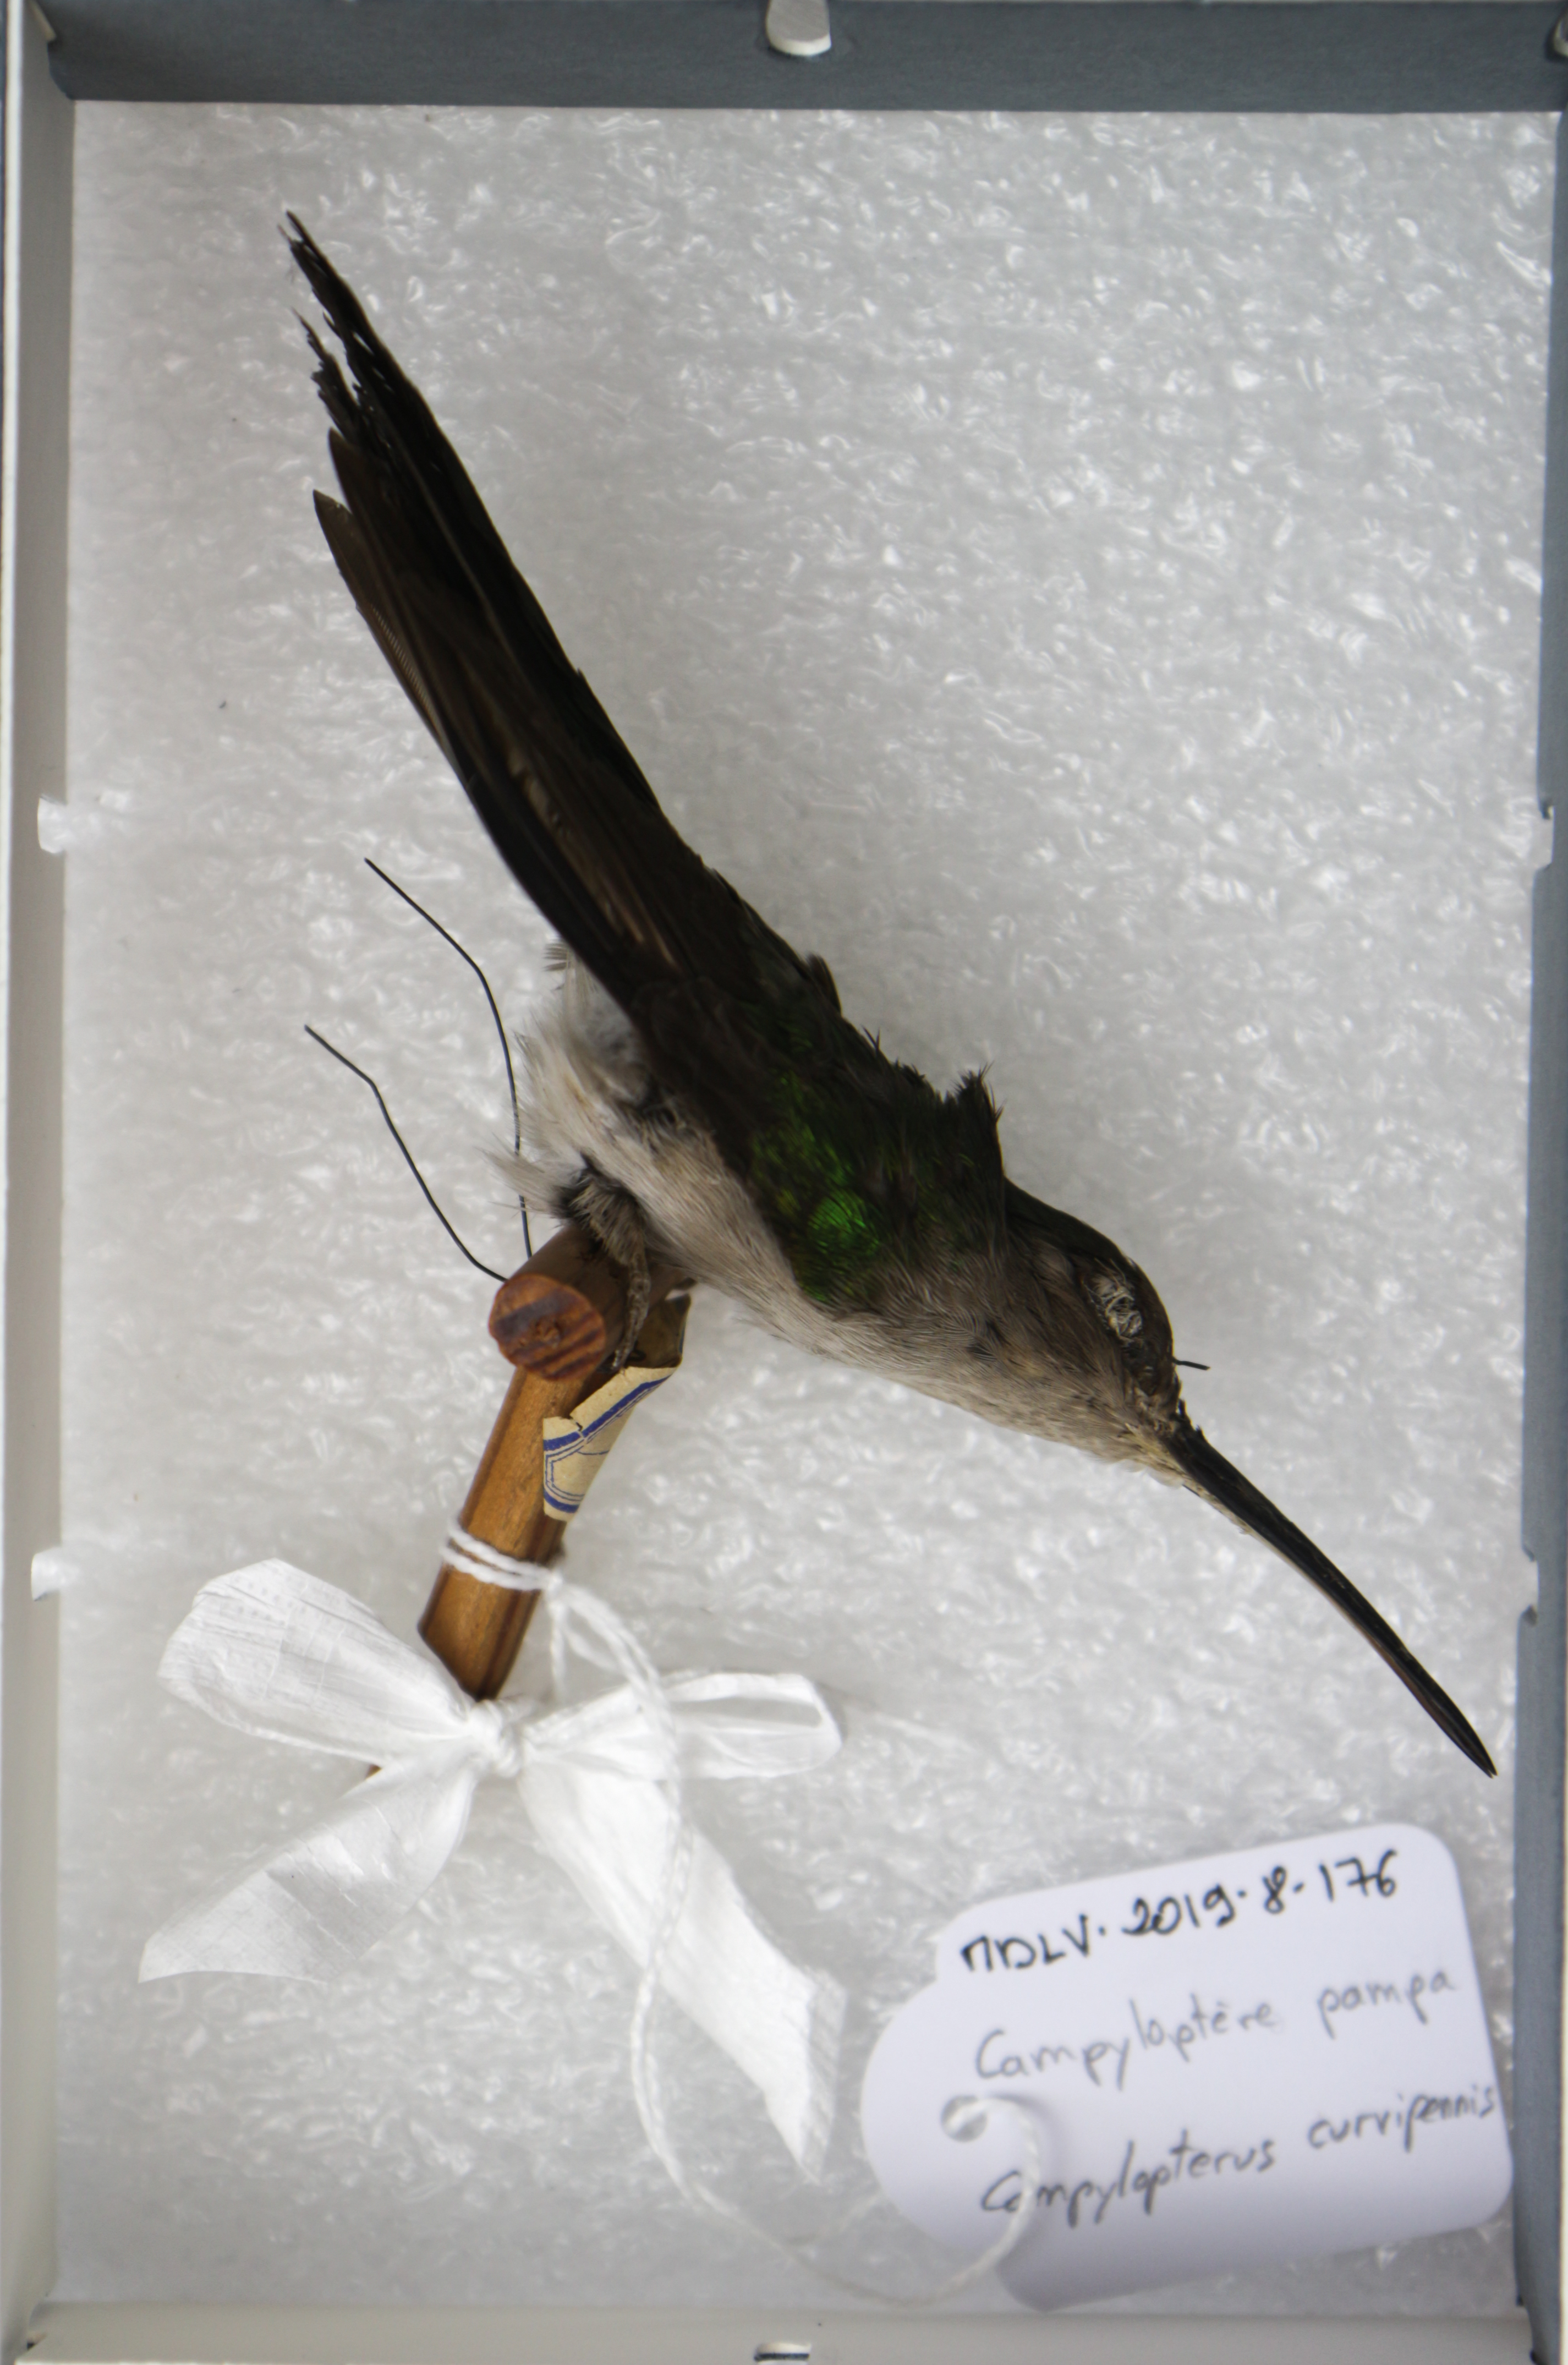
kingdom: Animalia
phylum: Chordata
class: Aves
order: Apodiformes
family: Trochilidae
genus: Pampa
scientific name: Pampa curvipennis
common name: Curve-winged sabrewing
